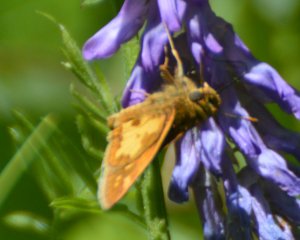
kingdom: Animalia
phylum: Arthropoda
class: Insecta
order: Lepidoptera
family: Hesperiidae
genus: Polites
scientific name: Polites coras
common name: Peck's Skipper
